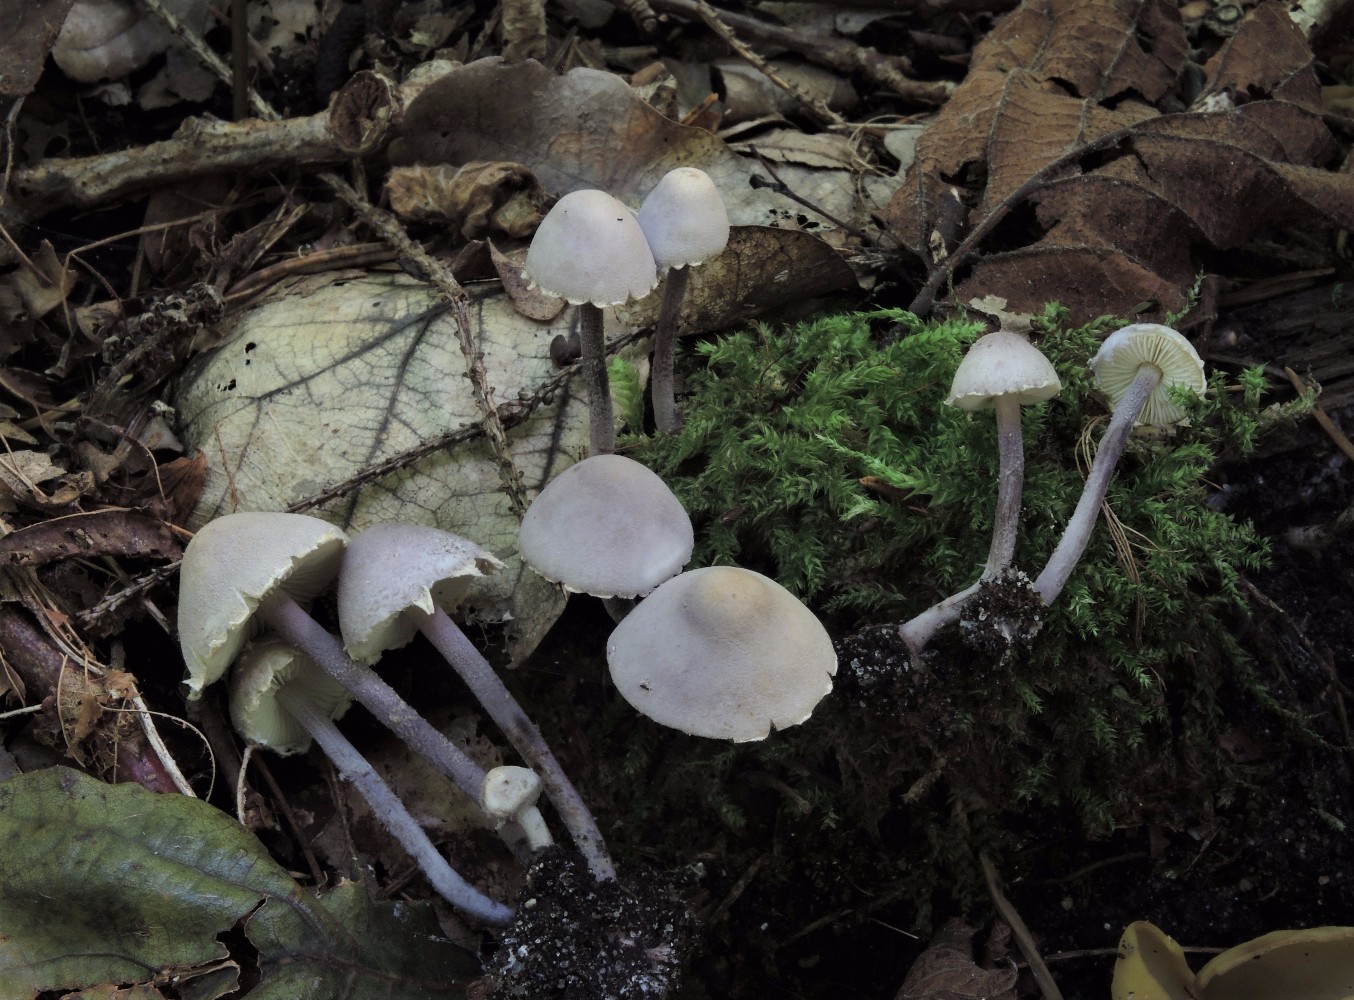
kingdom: Fungi
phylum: Basidiomycota
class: Agaricomycetes
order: Agaricales
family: Agaricaceae
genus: Cystolepiota
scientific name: Cystolepiota bucknallii
